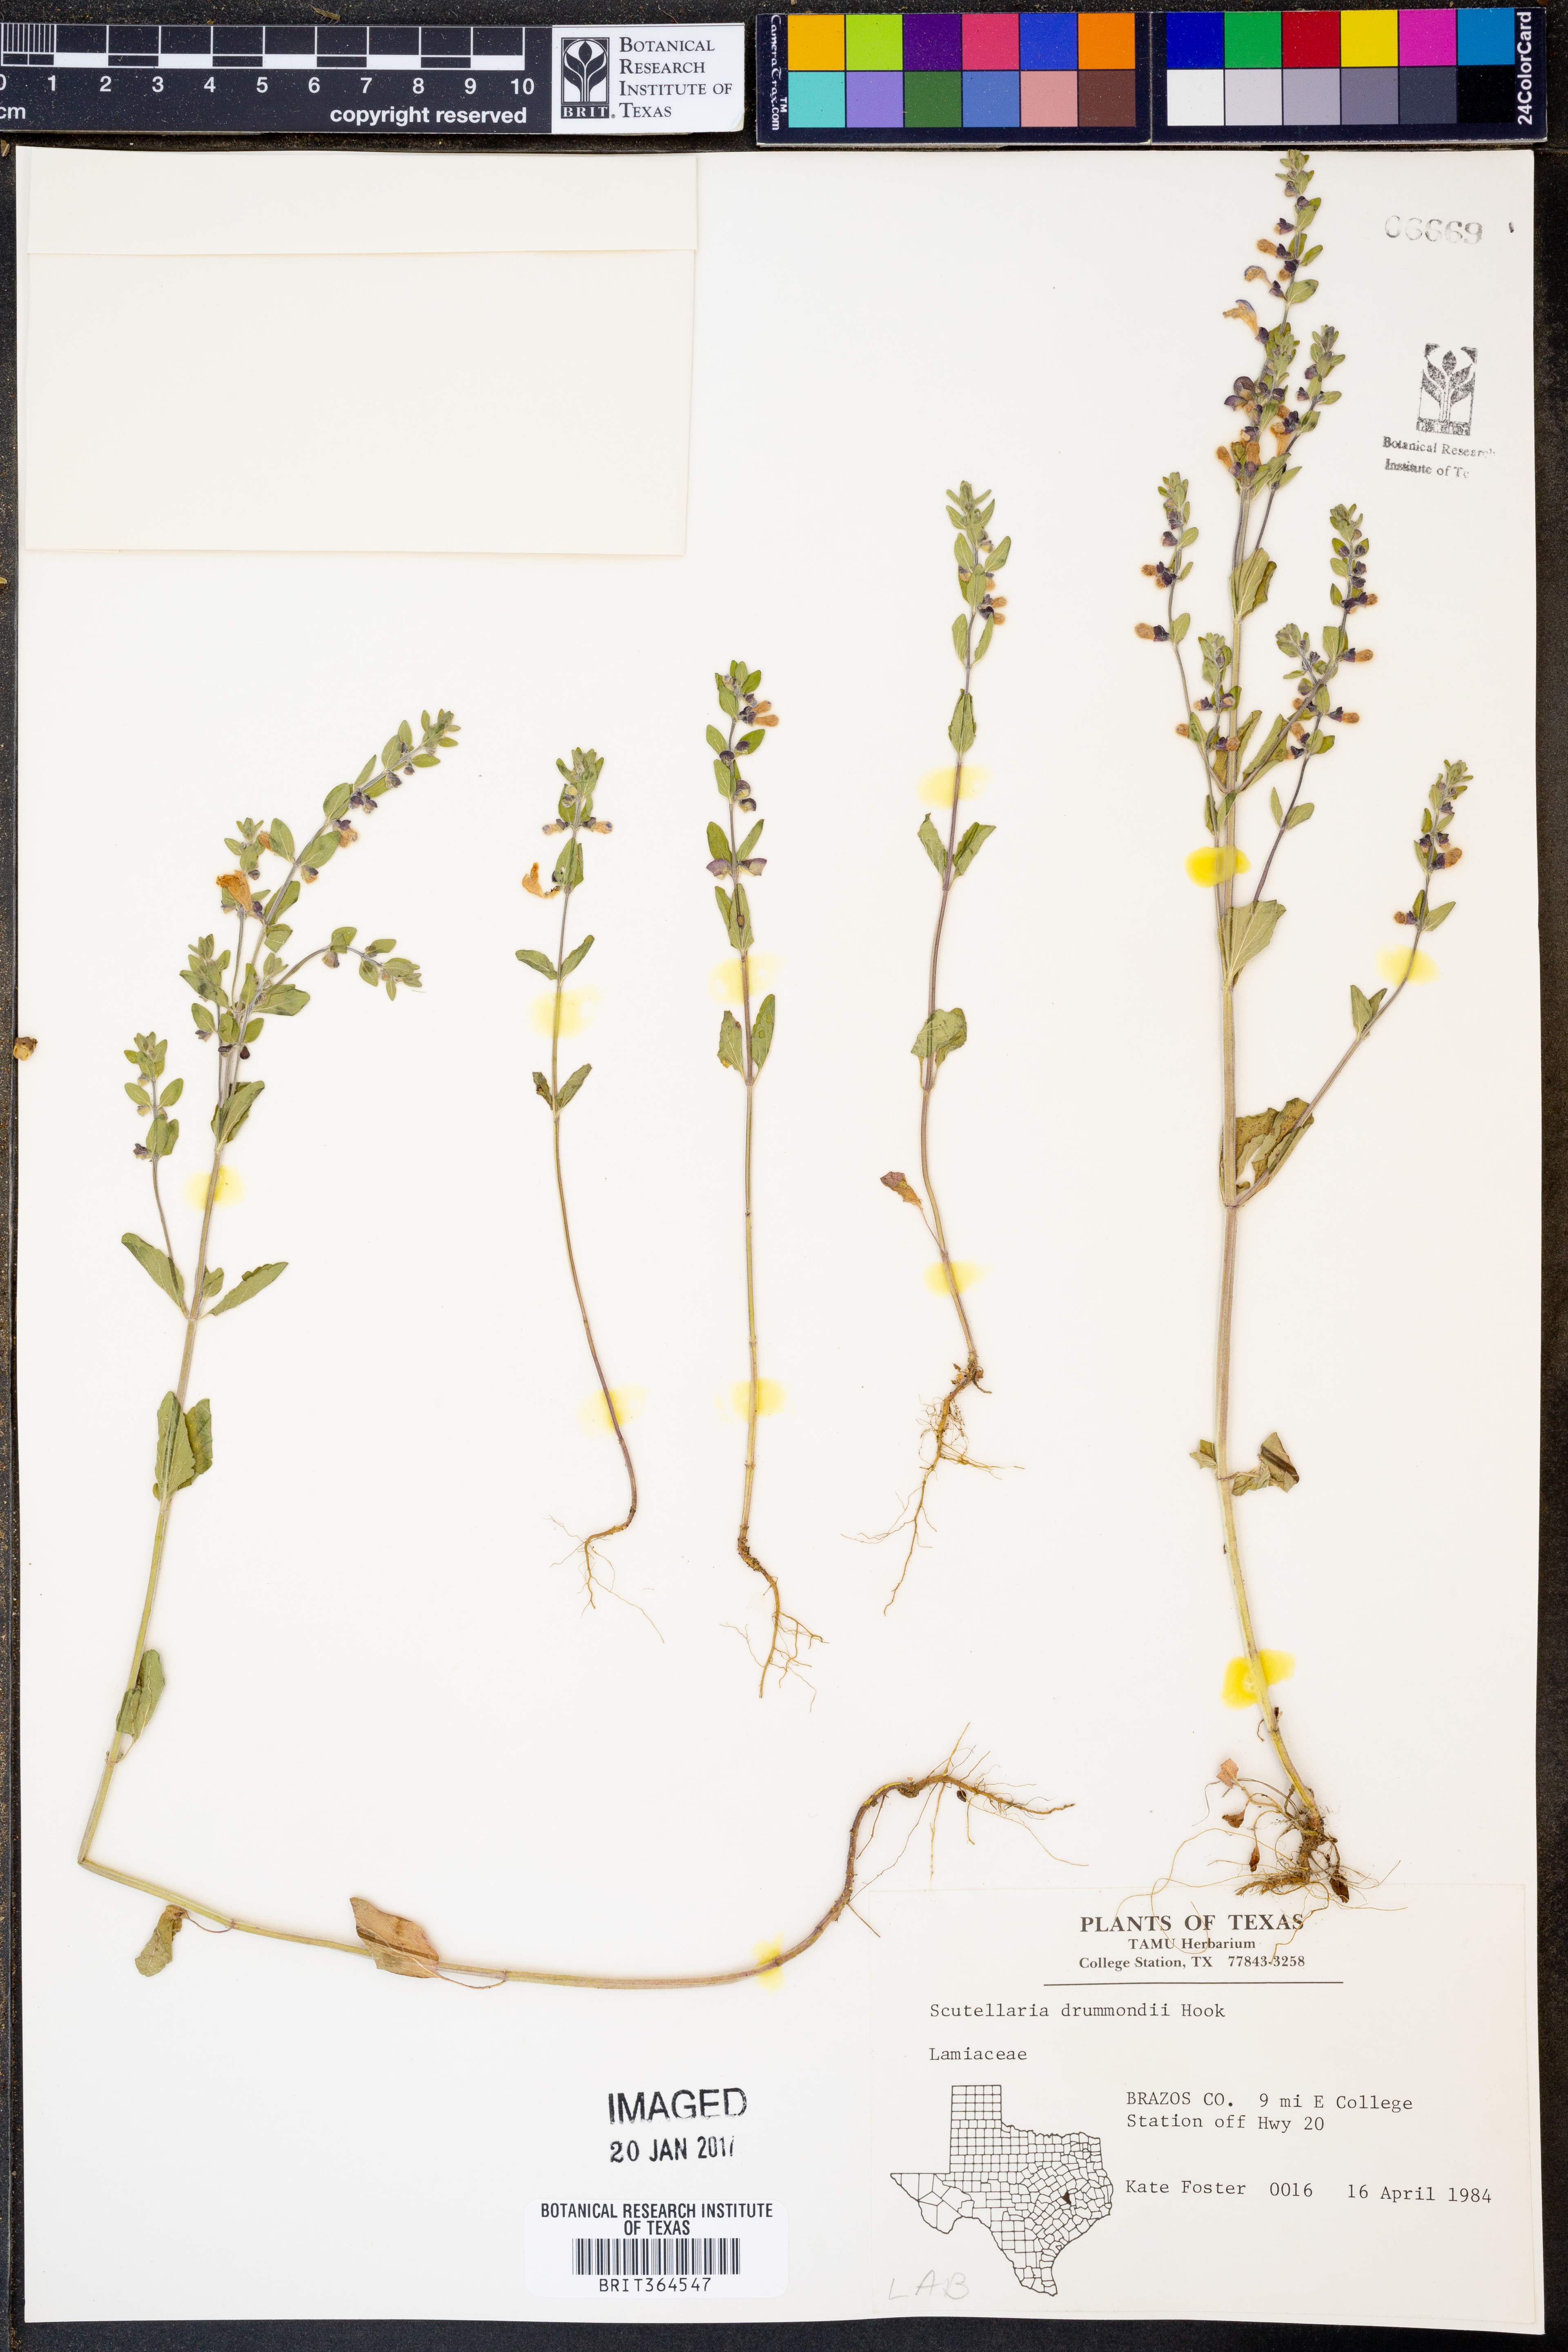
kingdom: Plantae
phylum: Tracheophyta
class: Magnoliopsida
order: Lamiales
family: Lamiaceae
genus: Scutellaria
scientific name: Scutellaria drummondii
